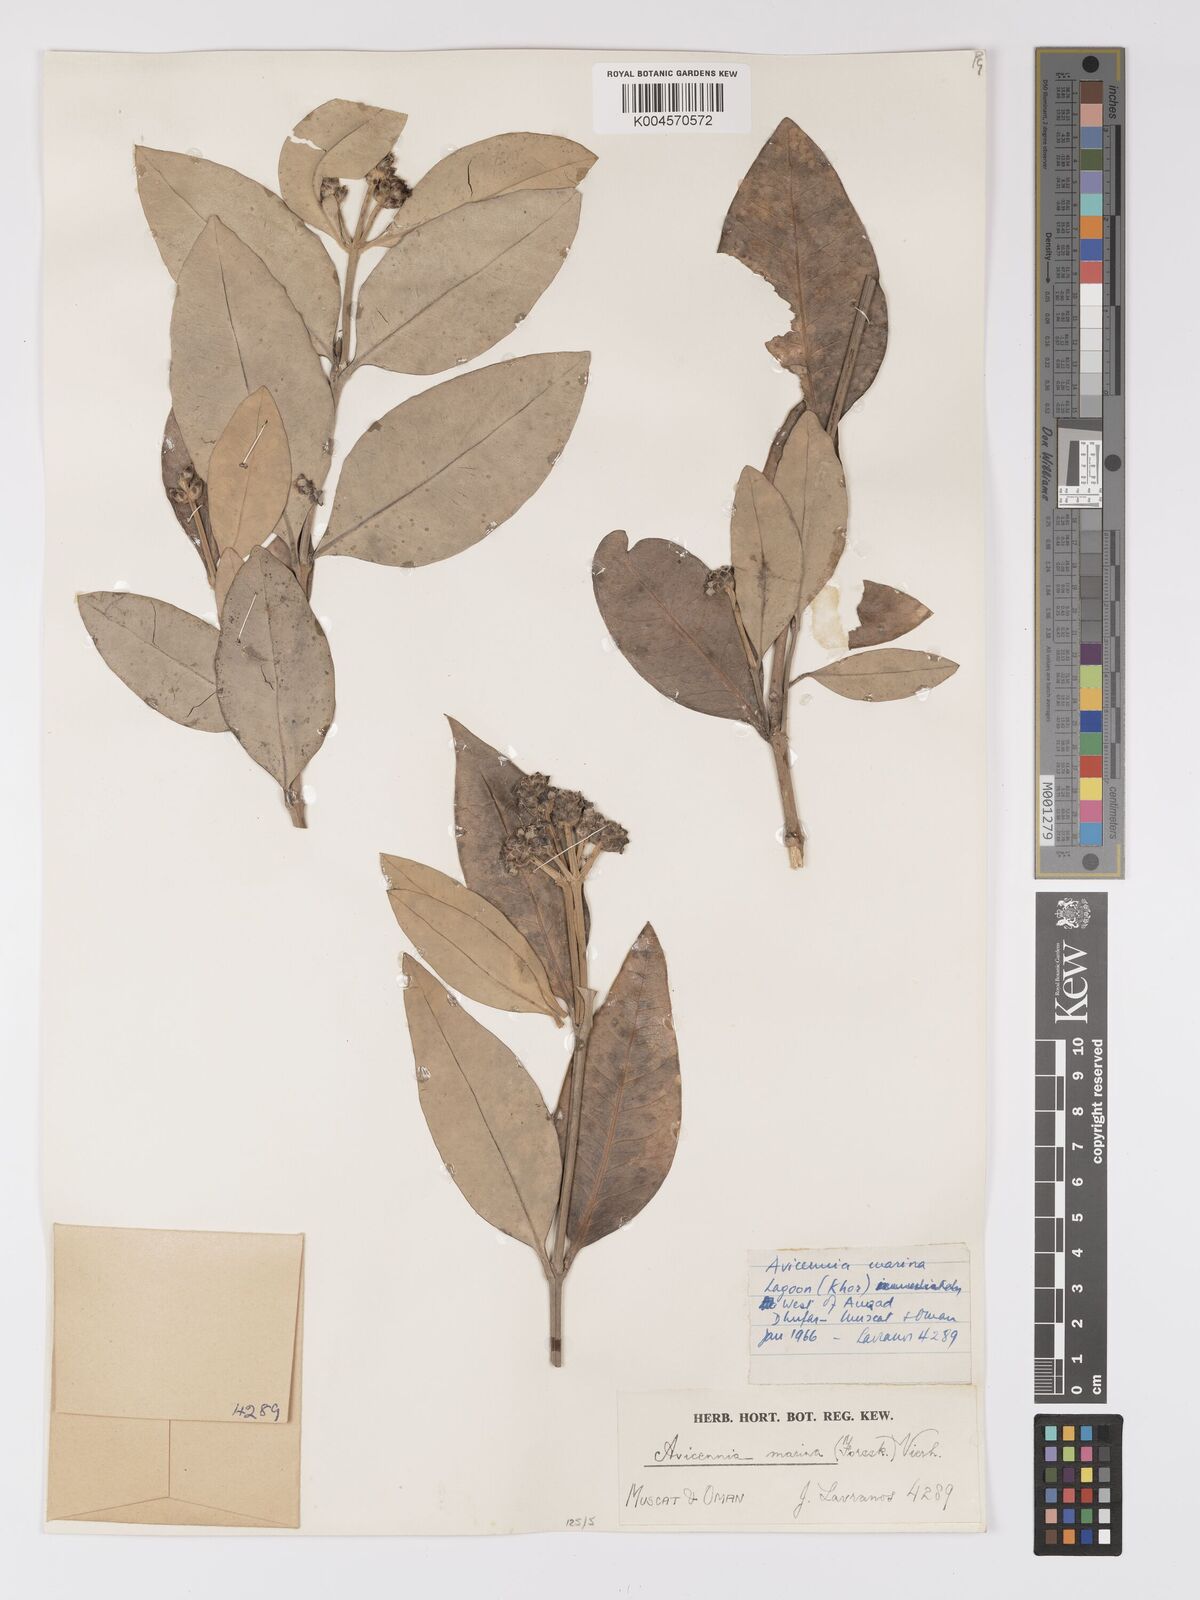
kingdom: Plantae
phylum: Tracheophyta
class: Magnoliopsida
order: Lamiales
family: Acanthaceae
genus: Avicennia
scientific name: Avicennia marina
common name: Gray mangrove
